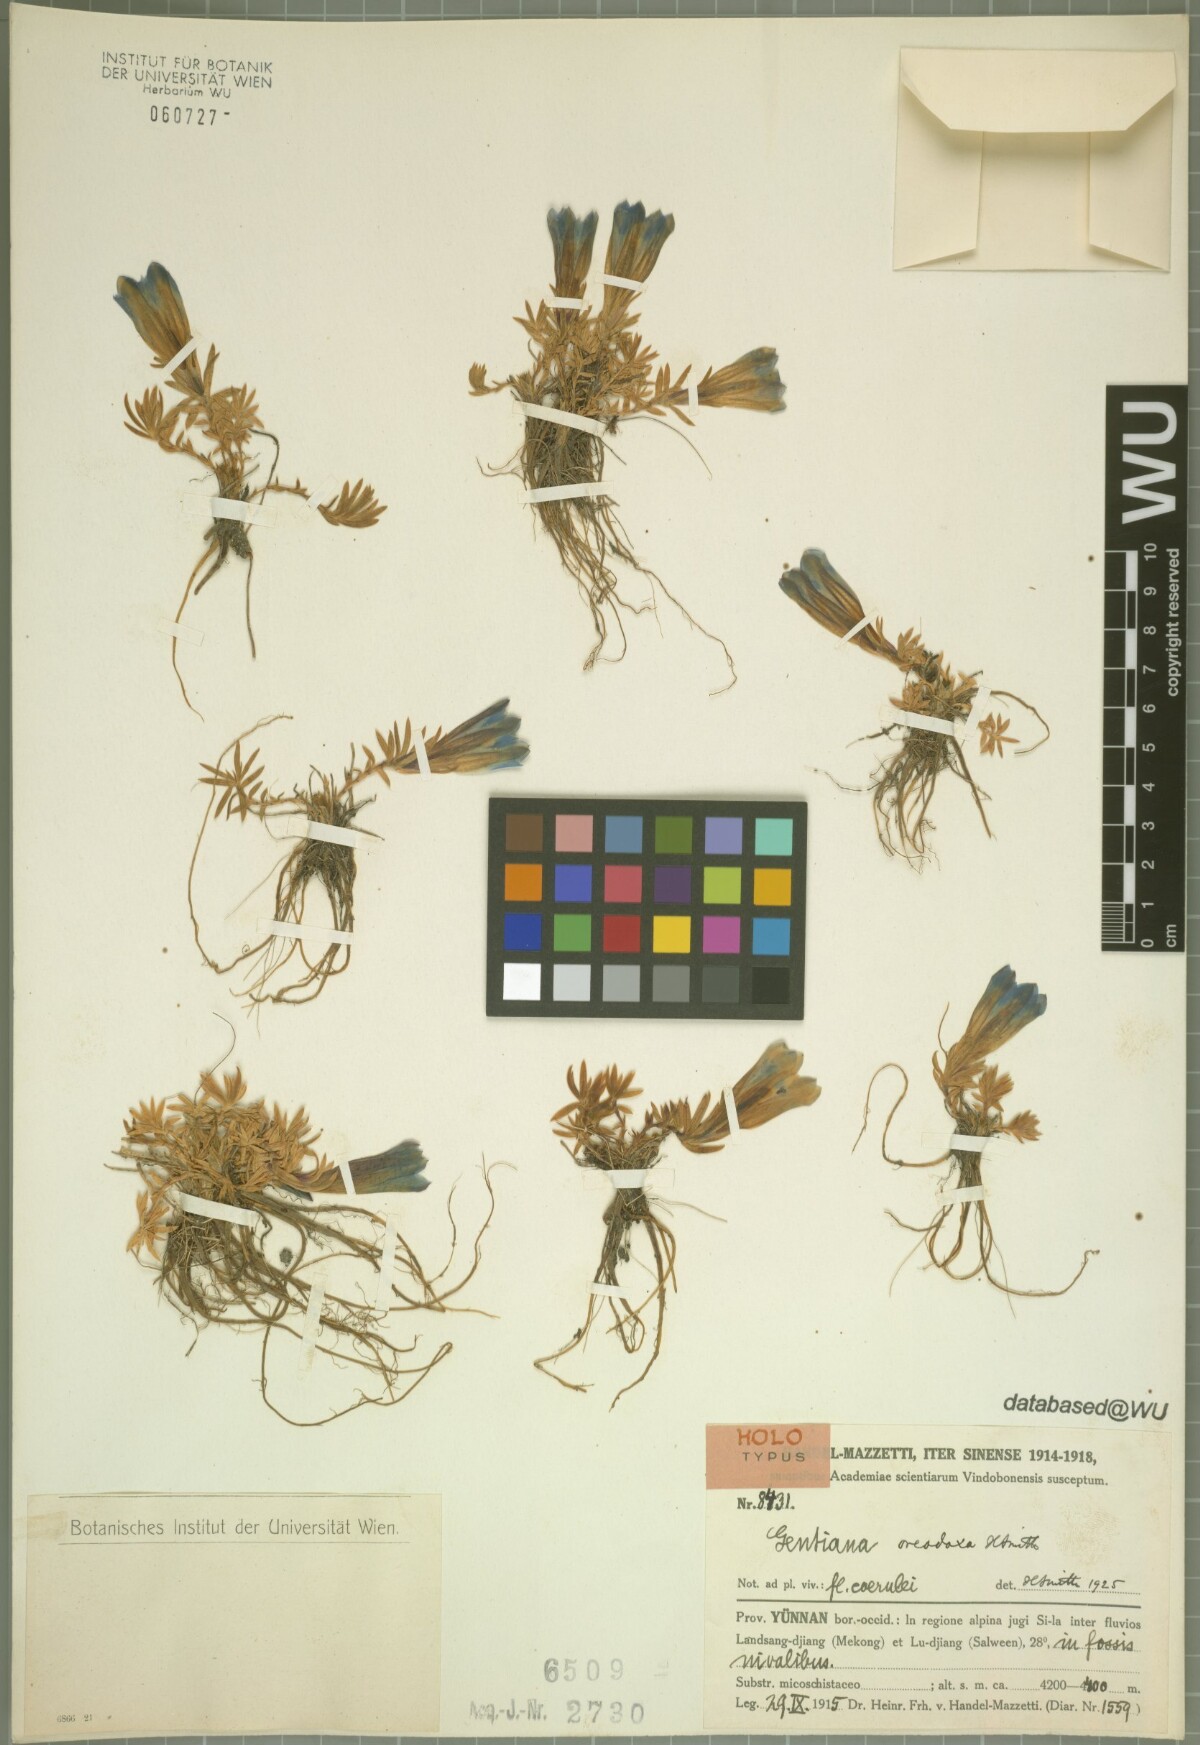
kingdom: Plantae
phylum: Tracheophyta
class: Magnoliopsida
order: Gentianales
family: Gentianaceae
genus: Gentiana
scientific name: Gentiana oreodoxa
